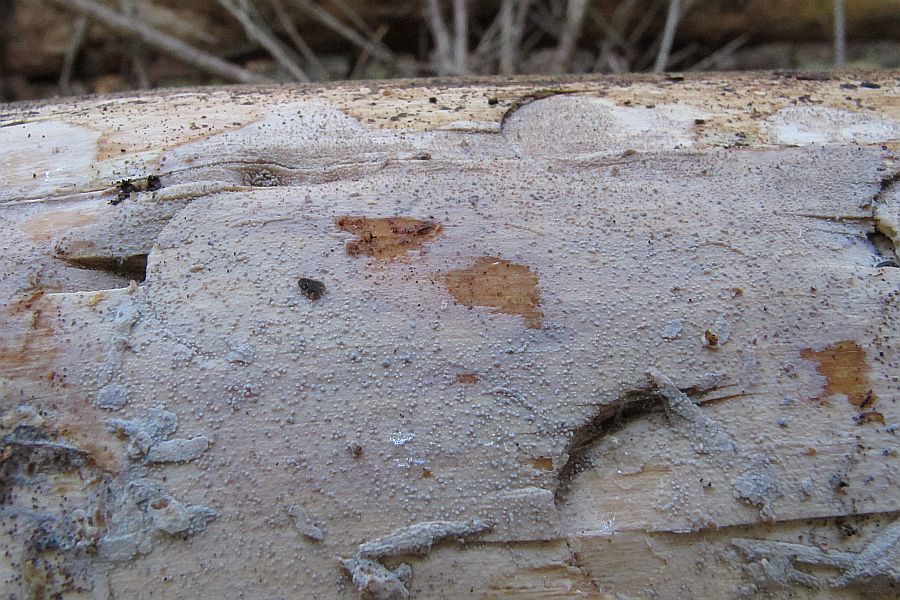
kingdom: Fungi
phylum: Basidiomycota
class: Agaricomycetes
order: Hymenochaetales
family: Rickenellaceae
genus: Resinicium
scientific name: Resinicium bicolor
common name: almindelig vokstand
